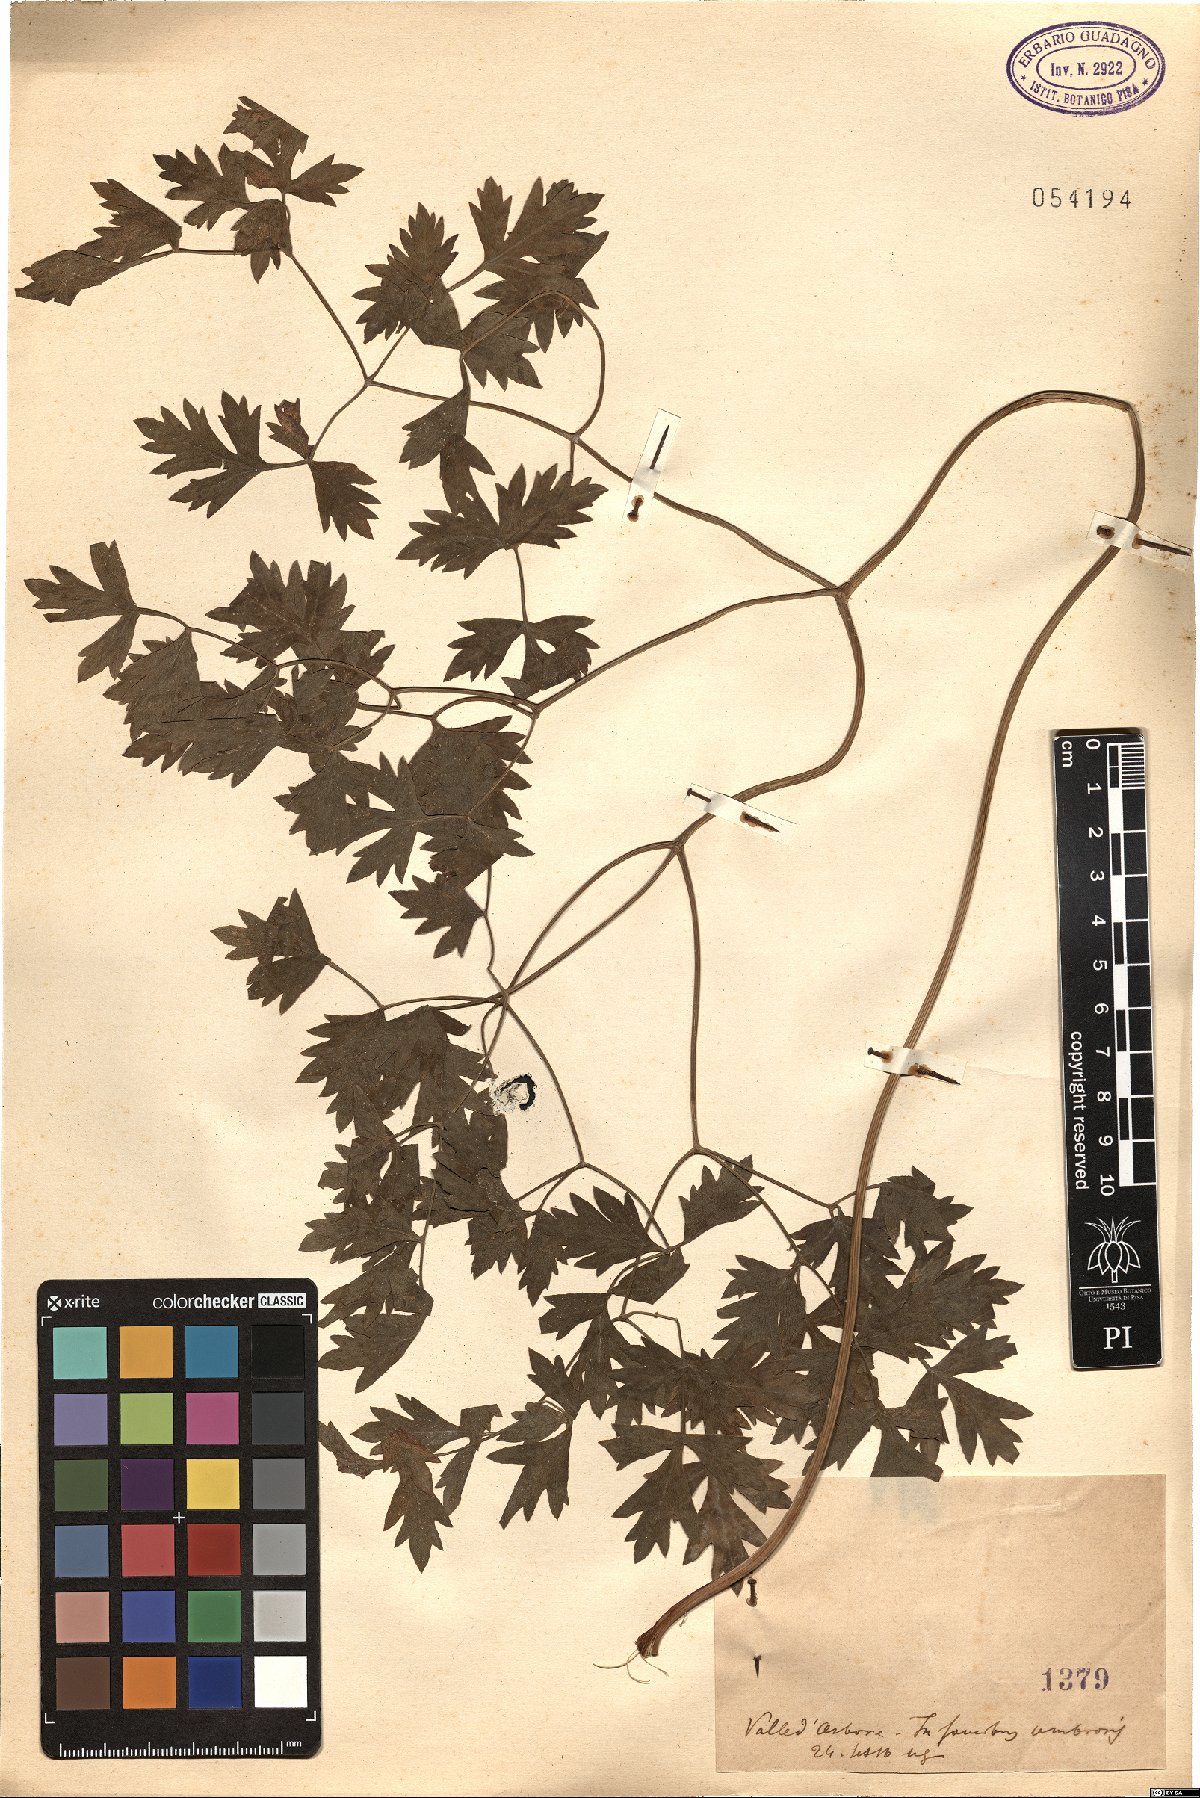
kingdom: Plantae
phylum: Tracheophyta
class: Magnoliopsida
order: Apiales
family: Apiaceae
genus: Peucedanum
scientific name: Peucedanum
